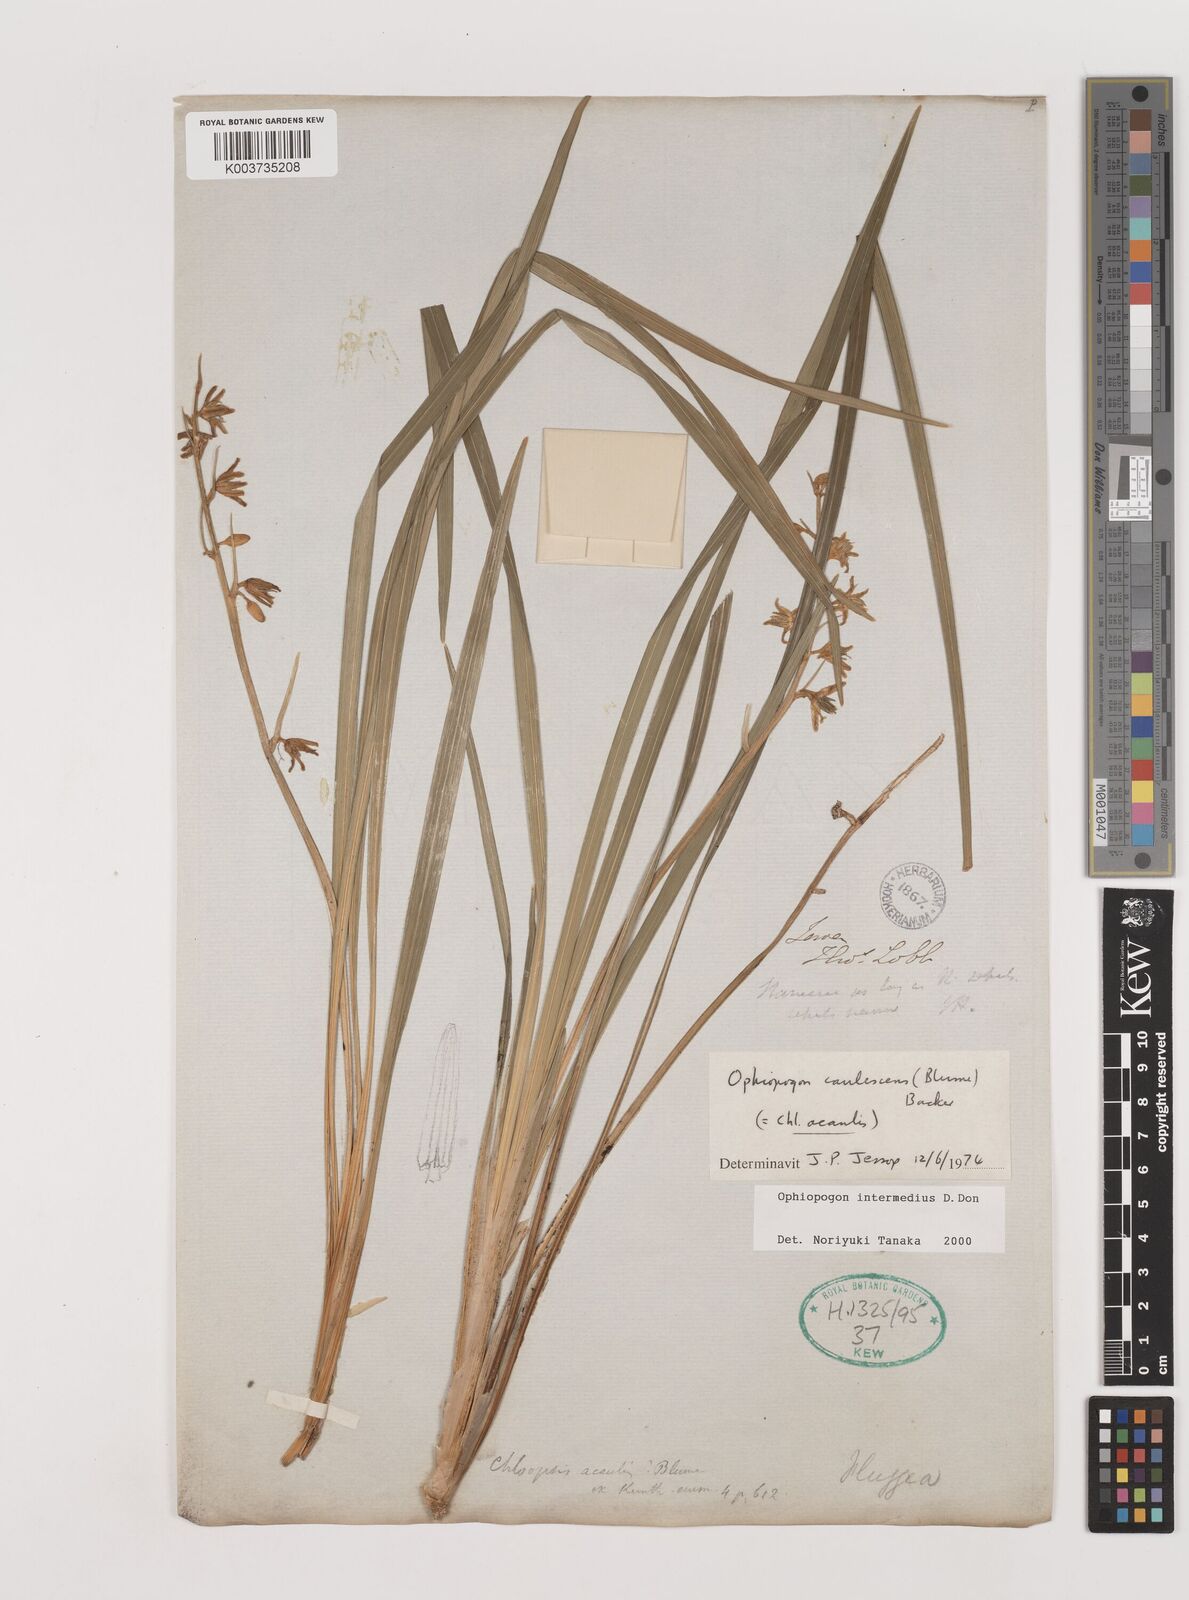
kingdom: Plantae
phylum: Tracheophyta
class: Liliopsida
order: Asparagales
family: Asparagaceae
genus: Ophiopogon
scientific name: Ophiopogon intermedius
